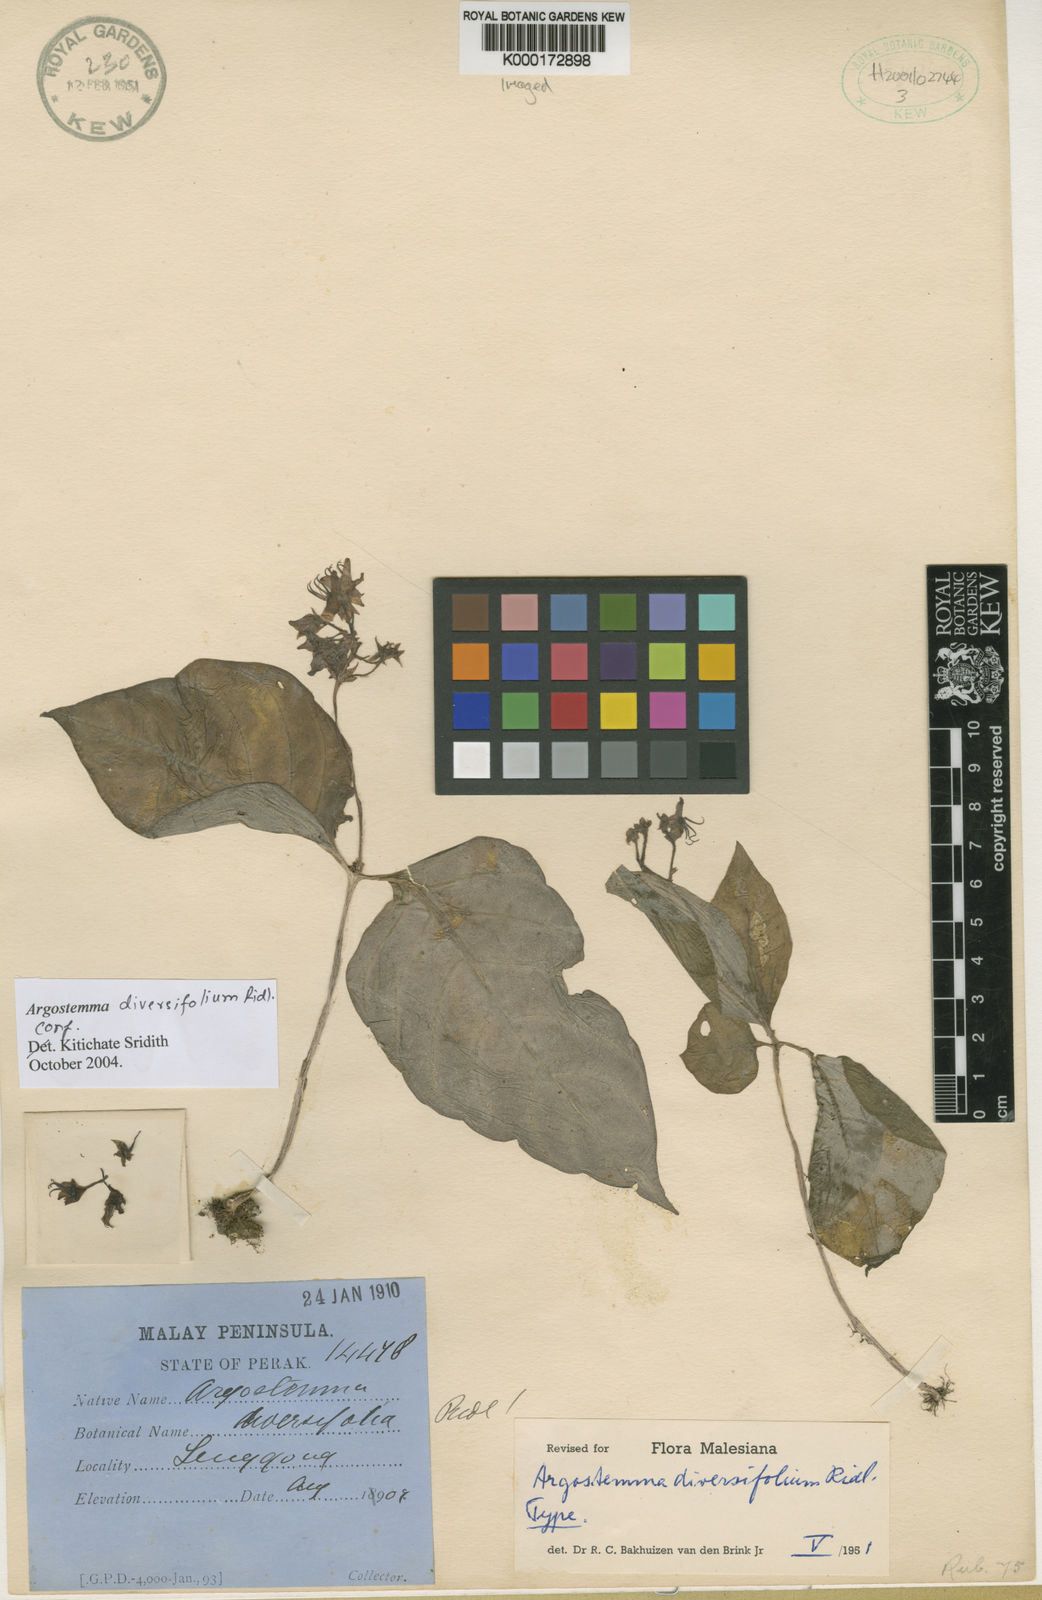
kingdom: Plantae
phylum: Tracheophyta
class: Magnoliopsida
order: Gentianales
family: Rubiaceae
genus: Argostemma
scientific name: Argostemma diversifolium
